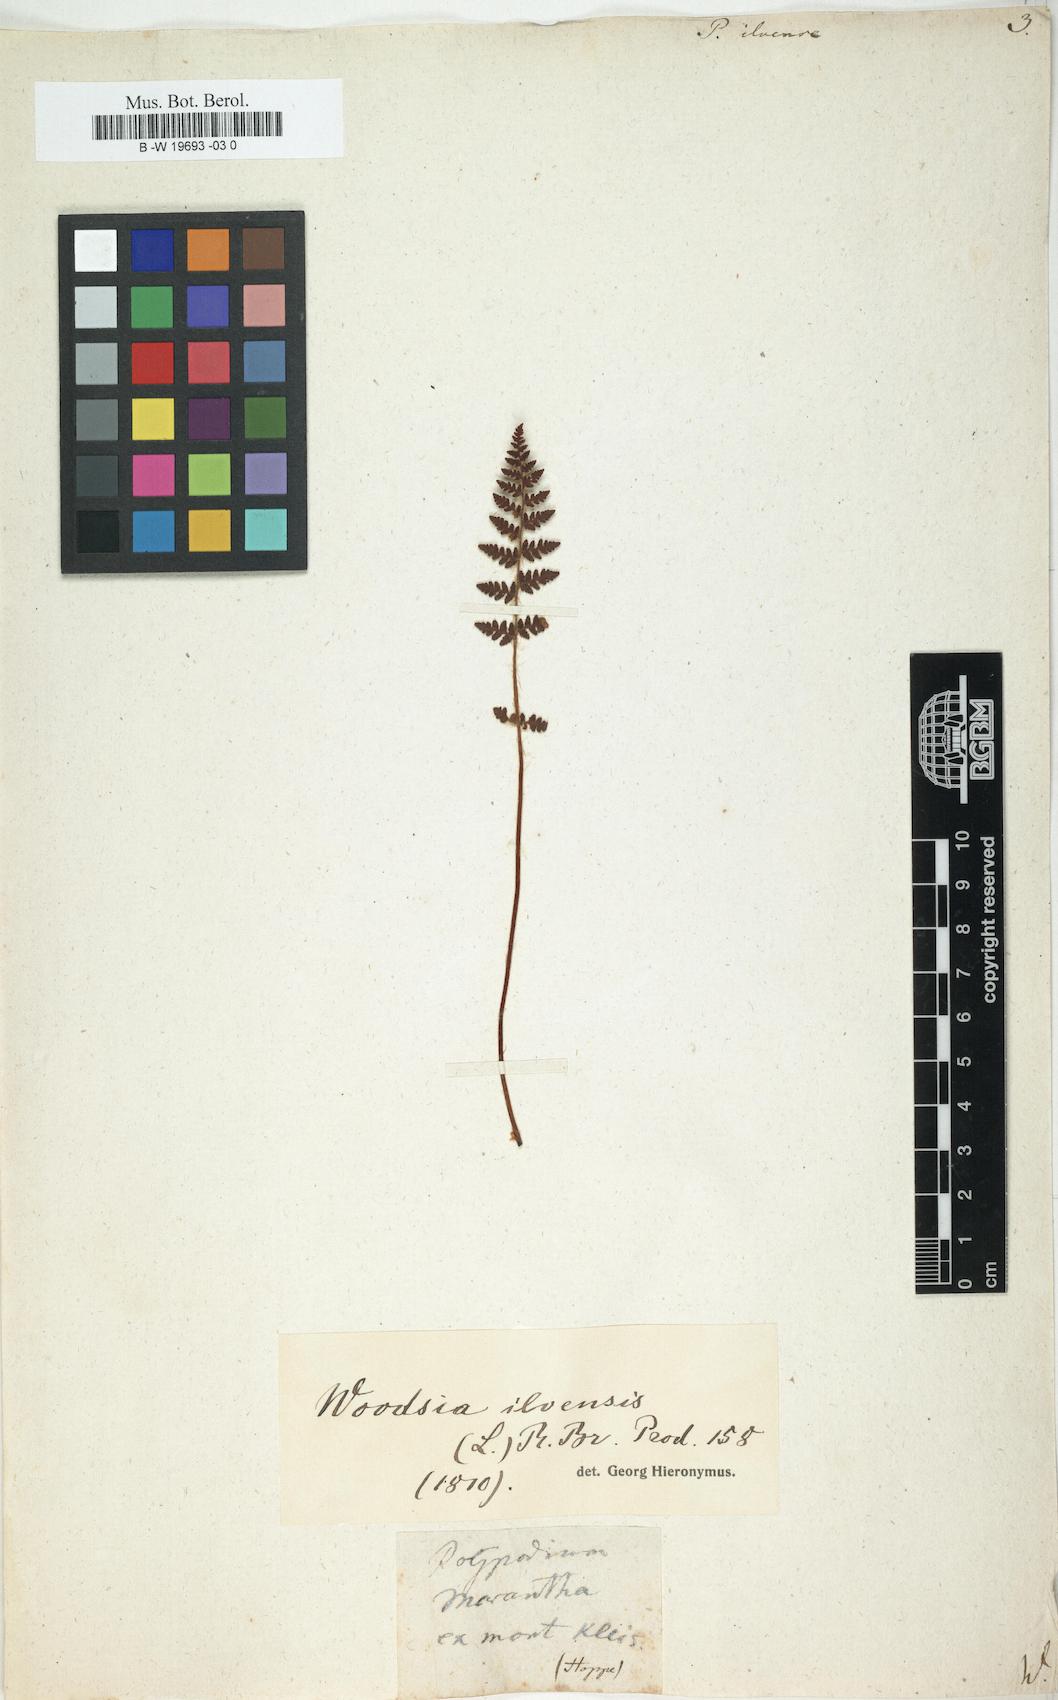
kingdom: Plantae
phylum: Tracheophyta
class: Polypodiopsida
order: Polypodiales
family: Woodsiaceae
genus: Woodsia
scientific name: Woodsia ilvensis
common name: Fragrant woodsia
